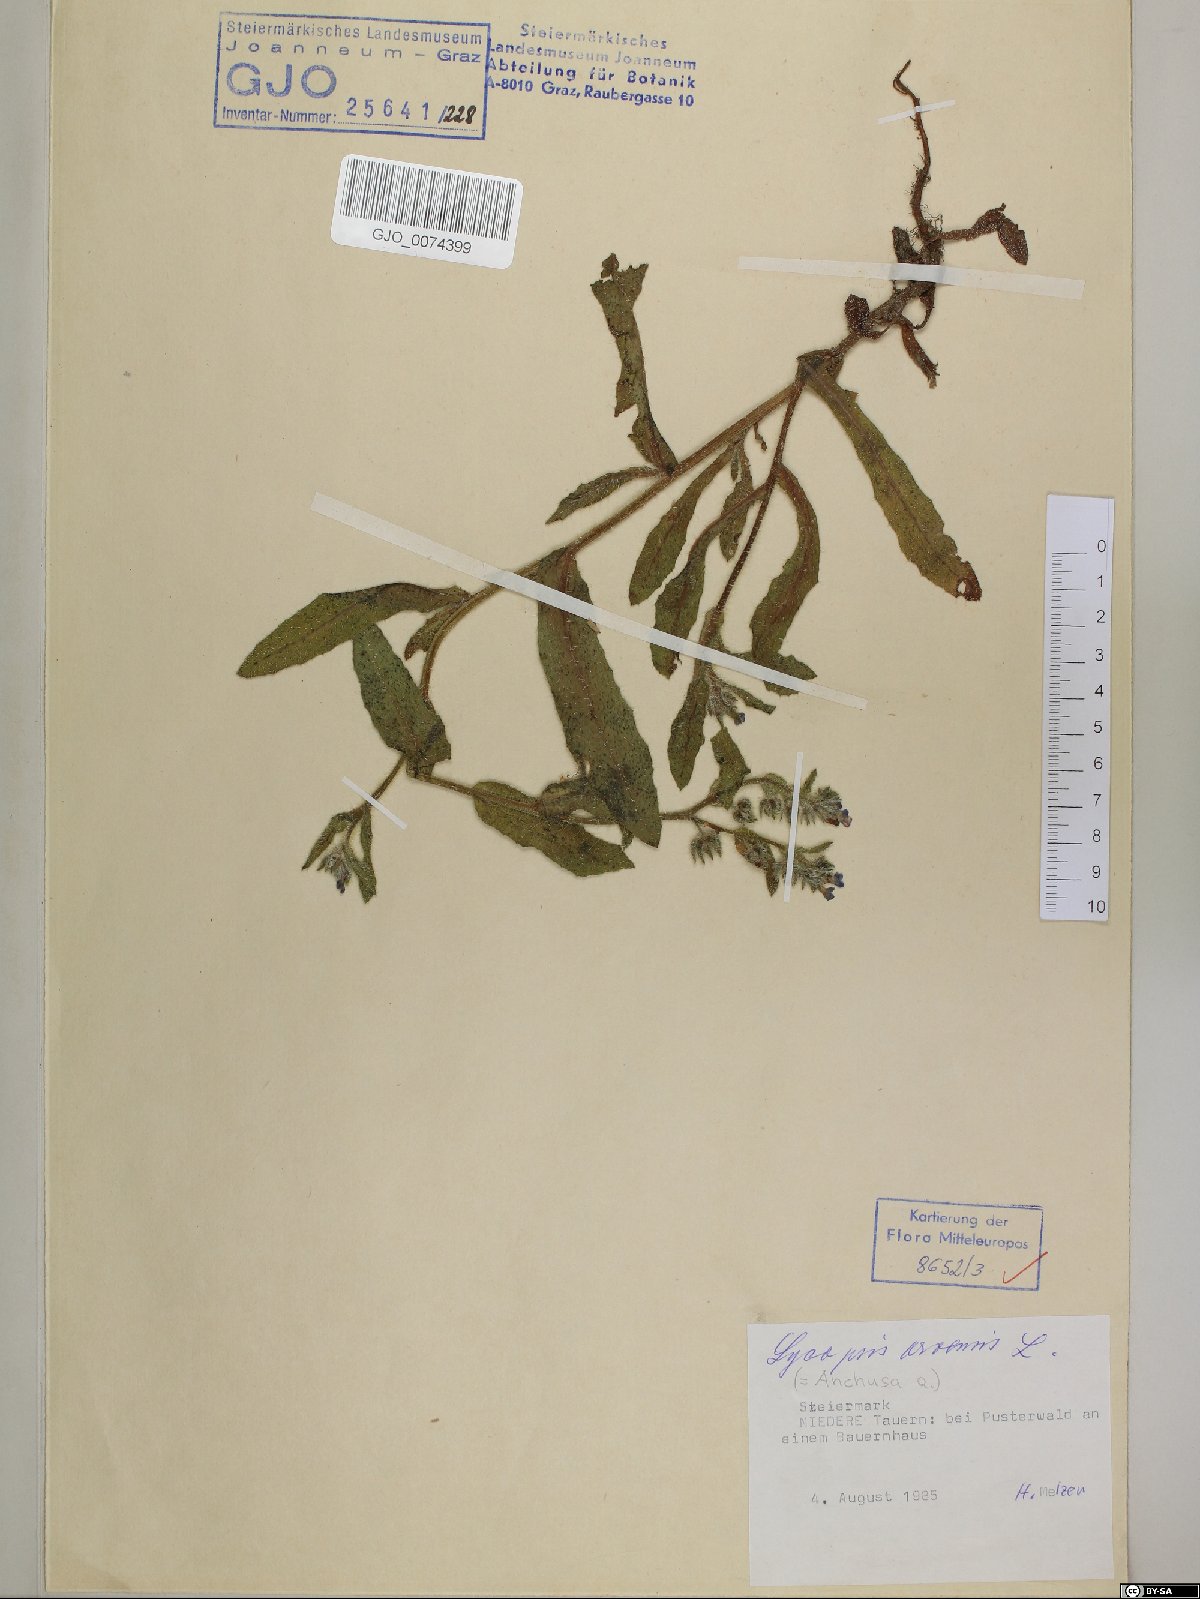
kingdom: Plantae
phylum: Tracheophyta
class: Magnoliopsida
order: Boraginales
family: Boraginaceae
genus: Lycopsis
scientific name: Lycopsis arvensis
